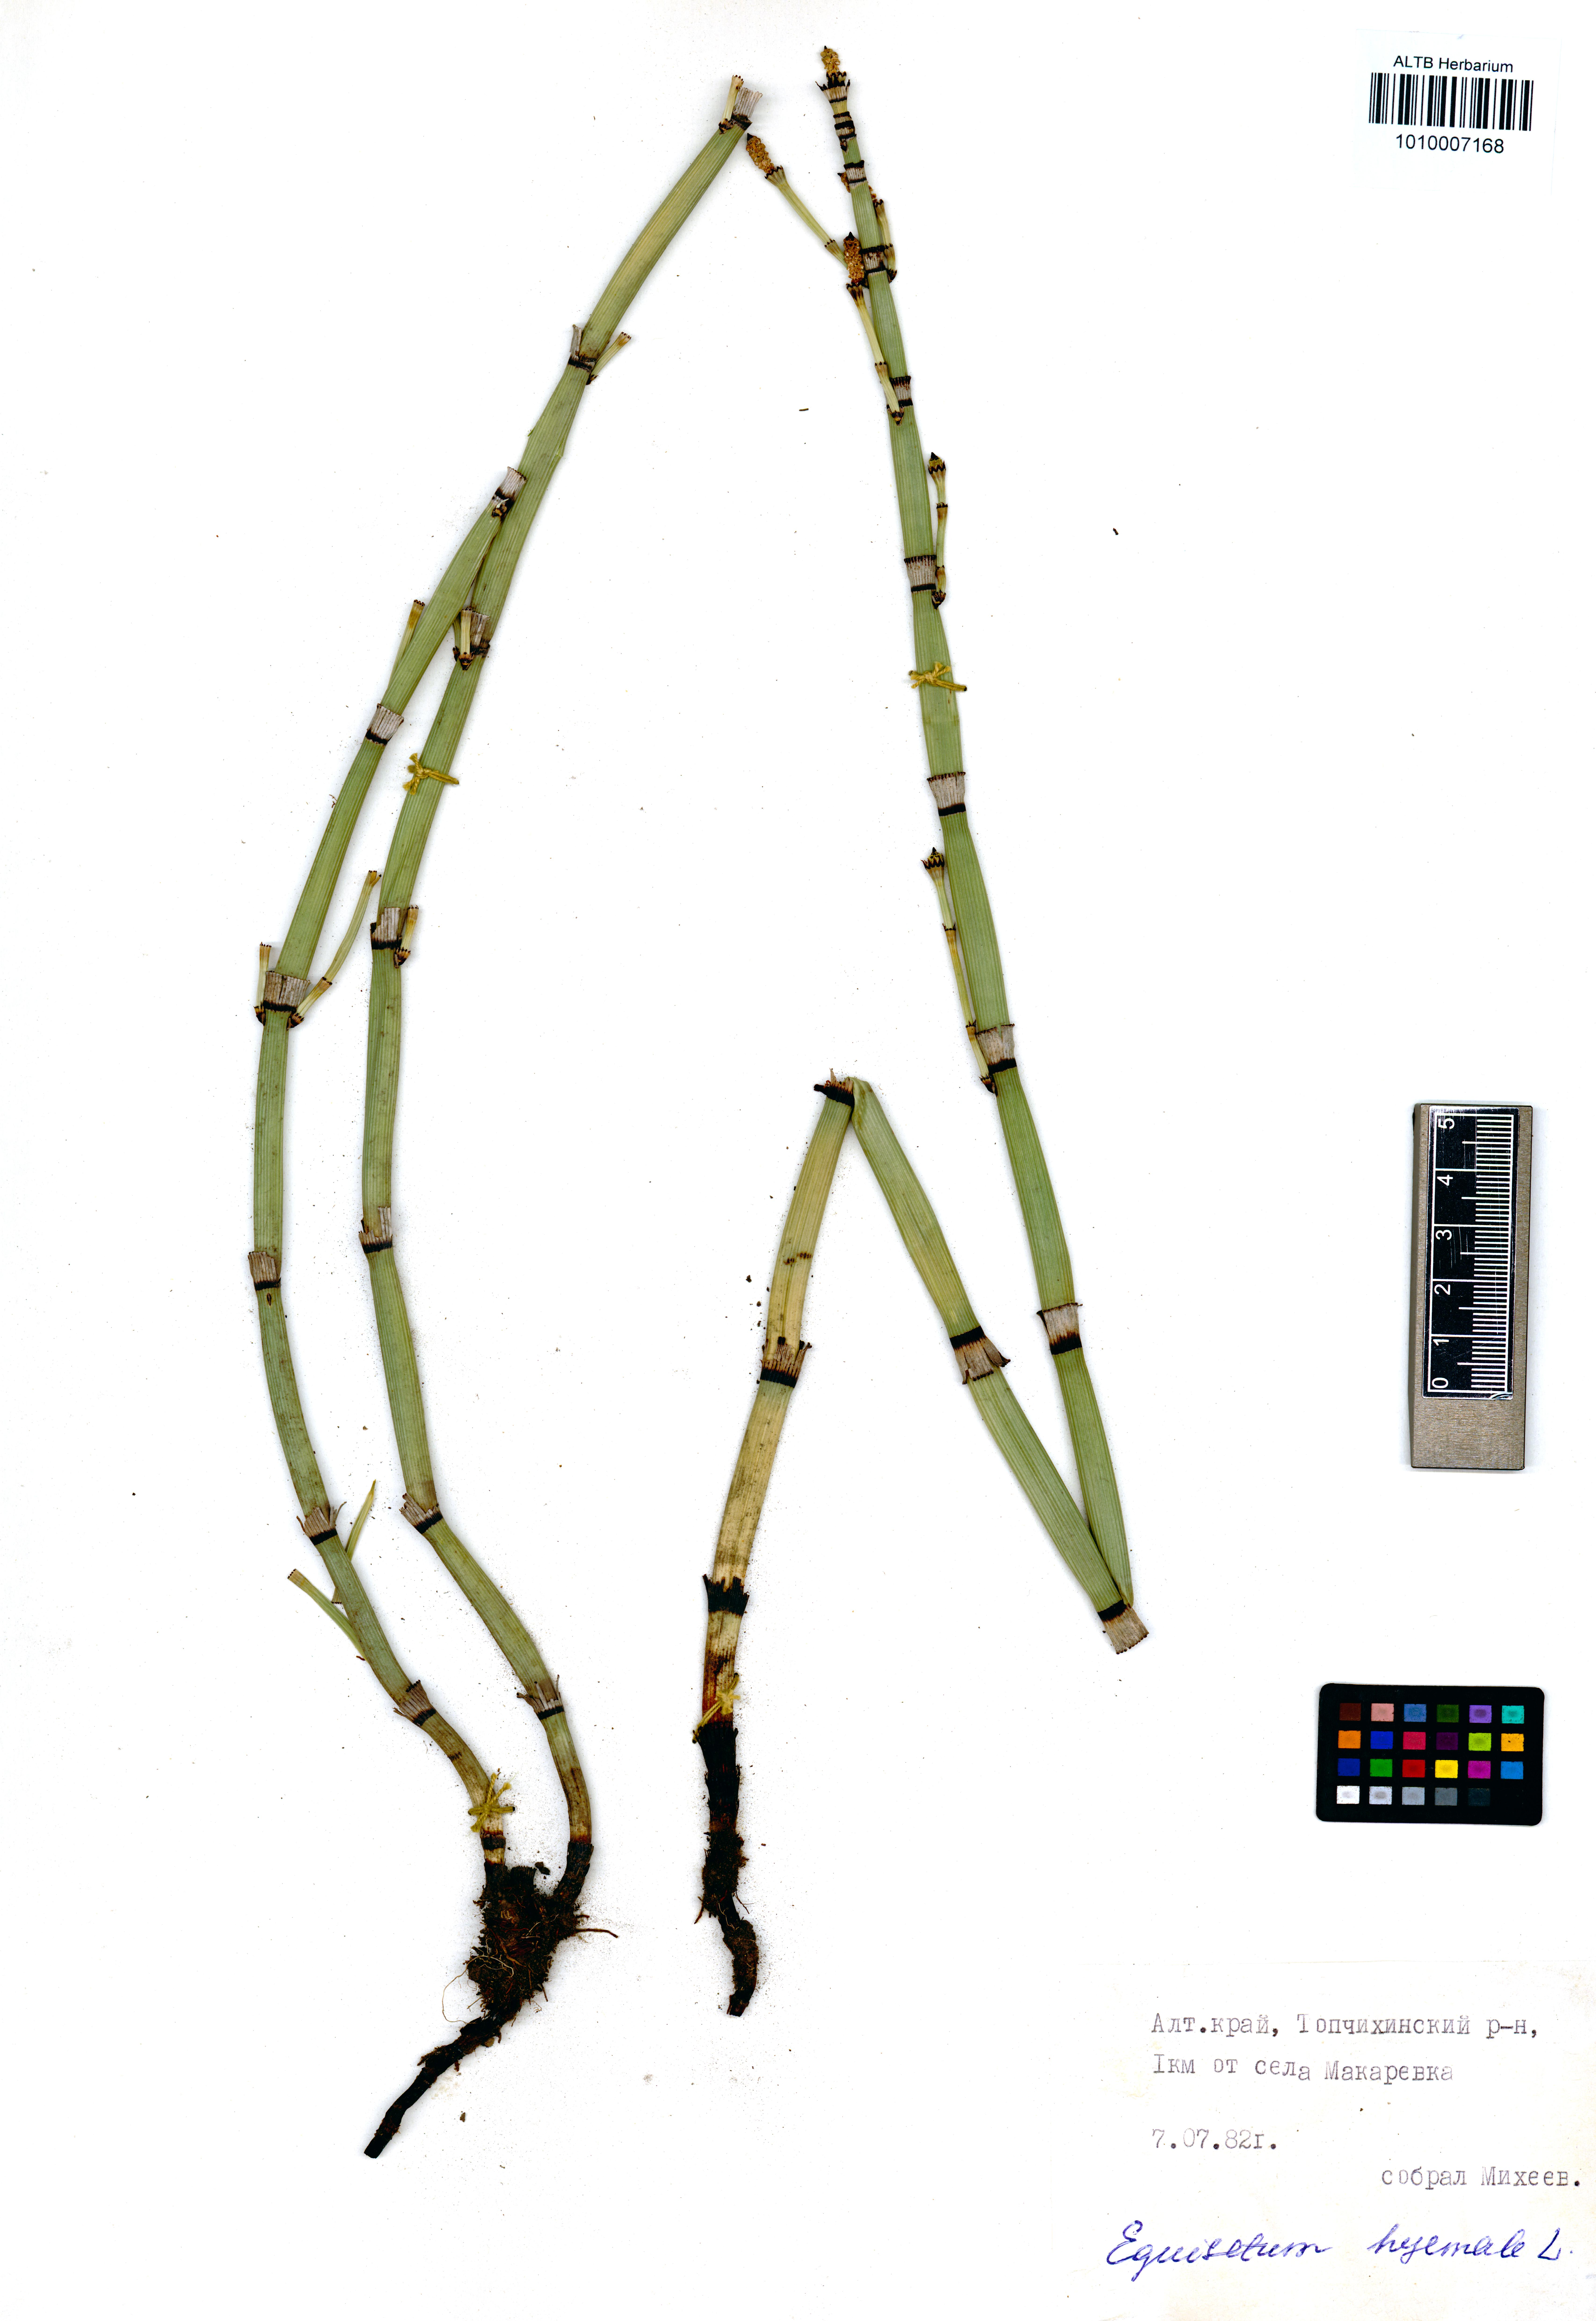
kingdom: Plantae
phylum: Tracheophyta
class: Polypodiopsida
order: Equisetales
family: Equisetaceae
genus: Equisetum
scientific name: Equisetum hyemale
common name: Rough horsetail
